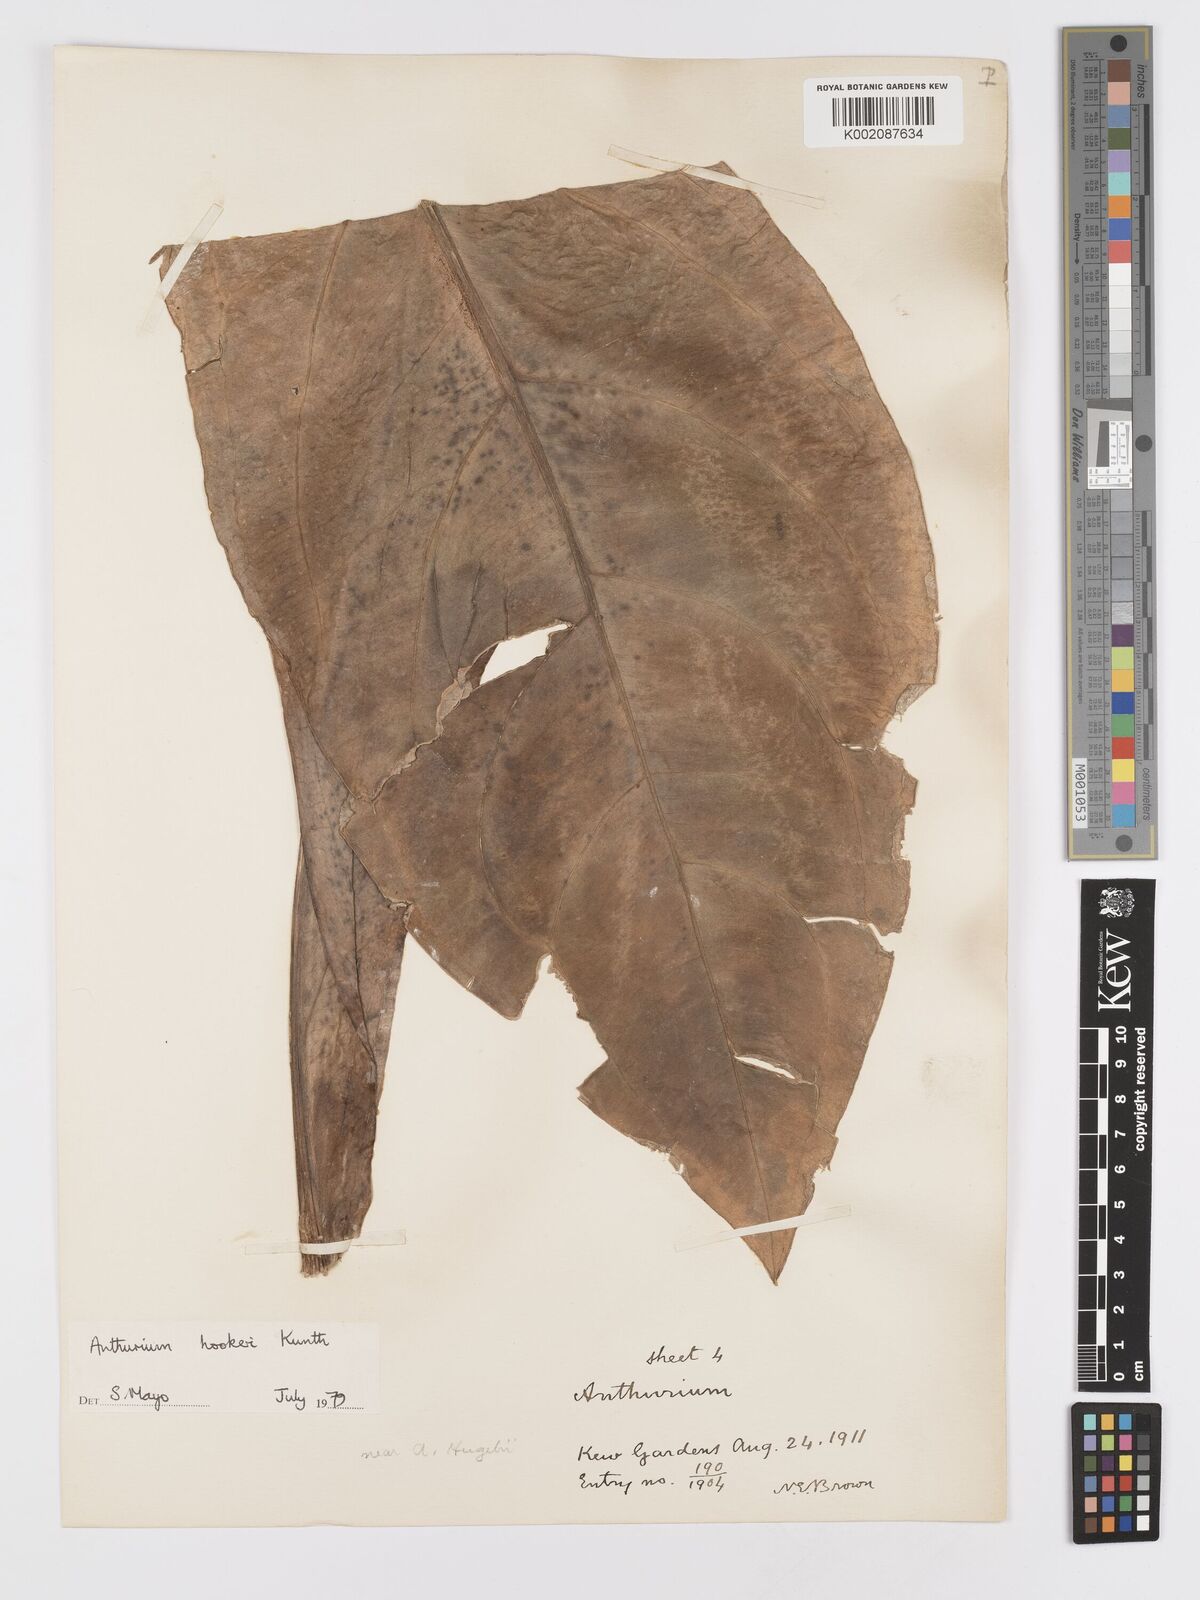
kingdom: Plantae
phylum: Tracheophyta
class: Liliopsida
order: Alismatales
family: Araceae
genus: Anthurium
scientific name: Anthurium hookeri
